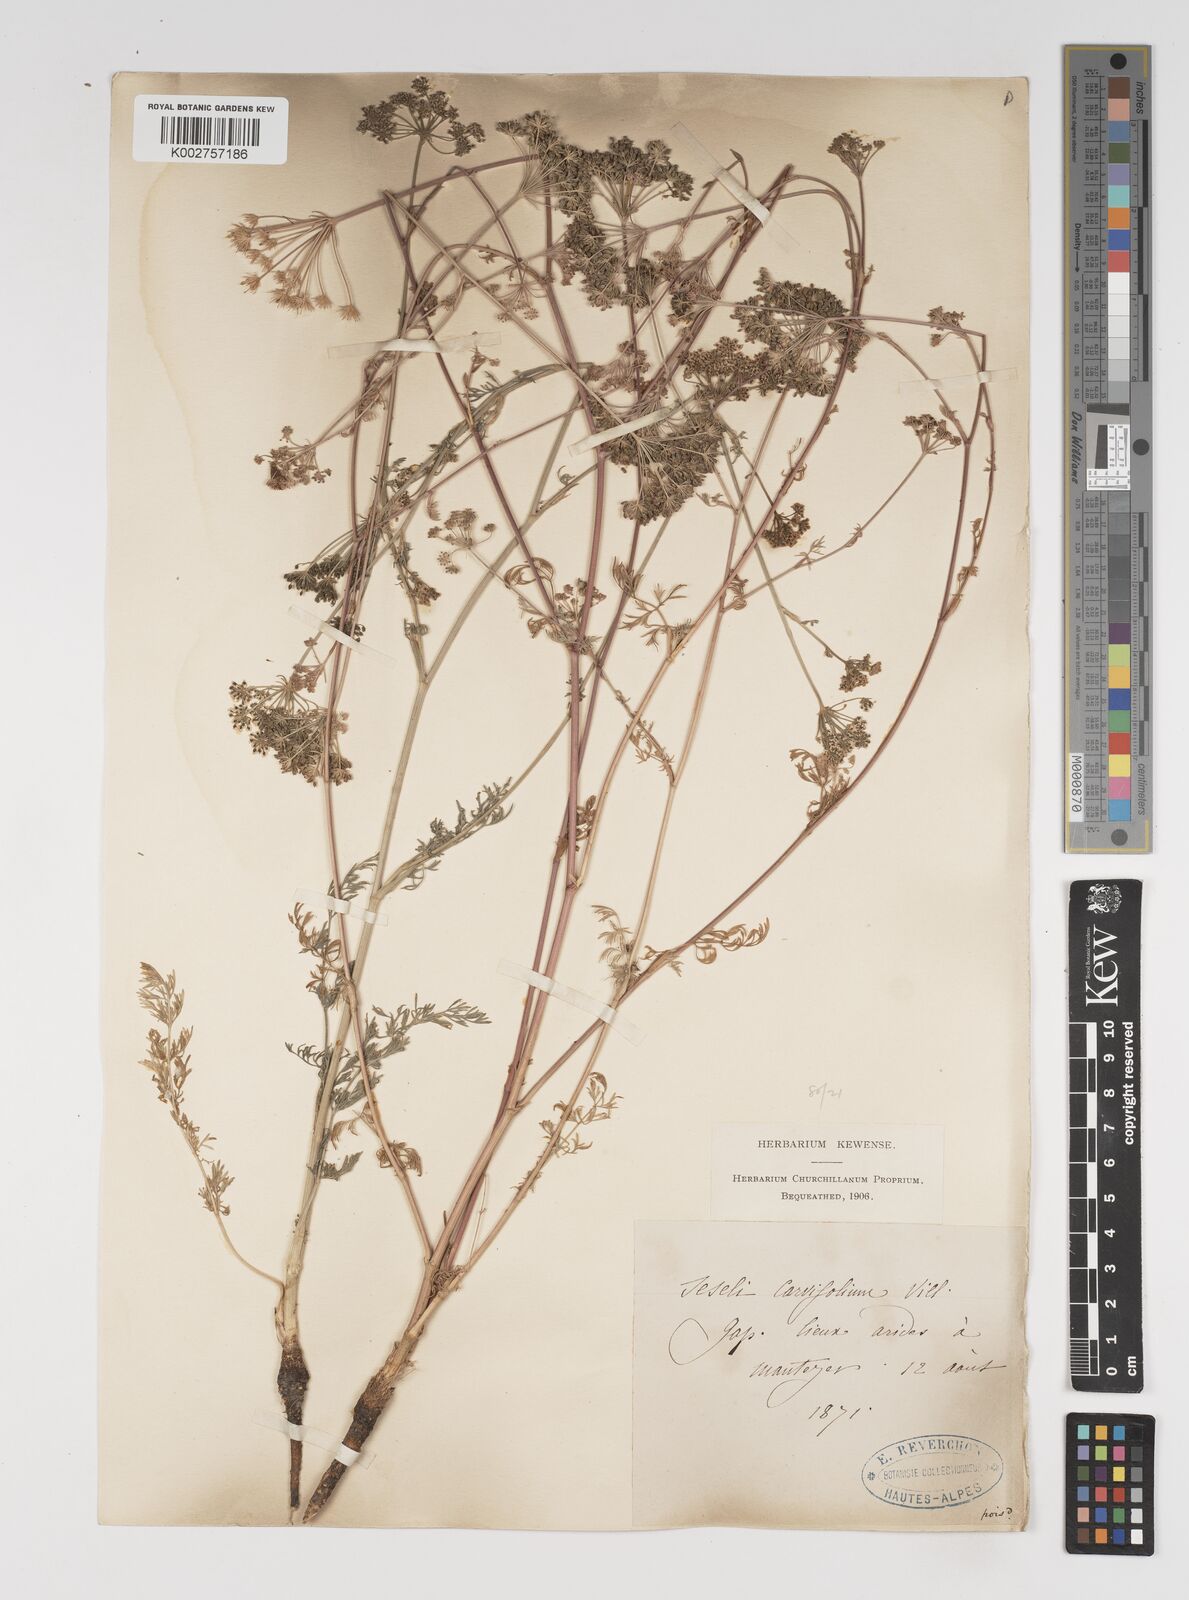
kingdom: Plantae
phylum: Tracheophyta
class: Magnoliopsida
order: Apiales
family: Apiaceae
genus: Seseli
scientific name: Seseli annuum
